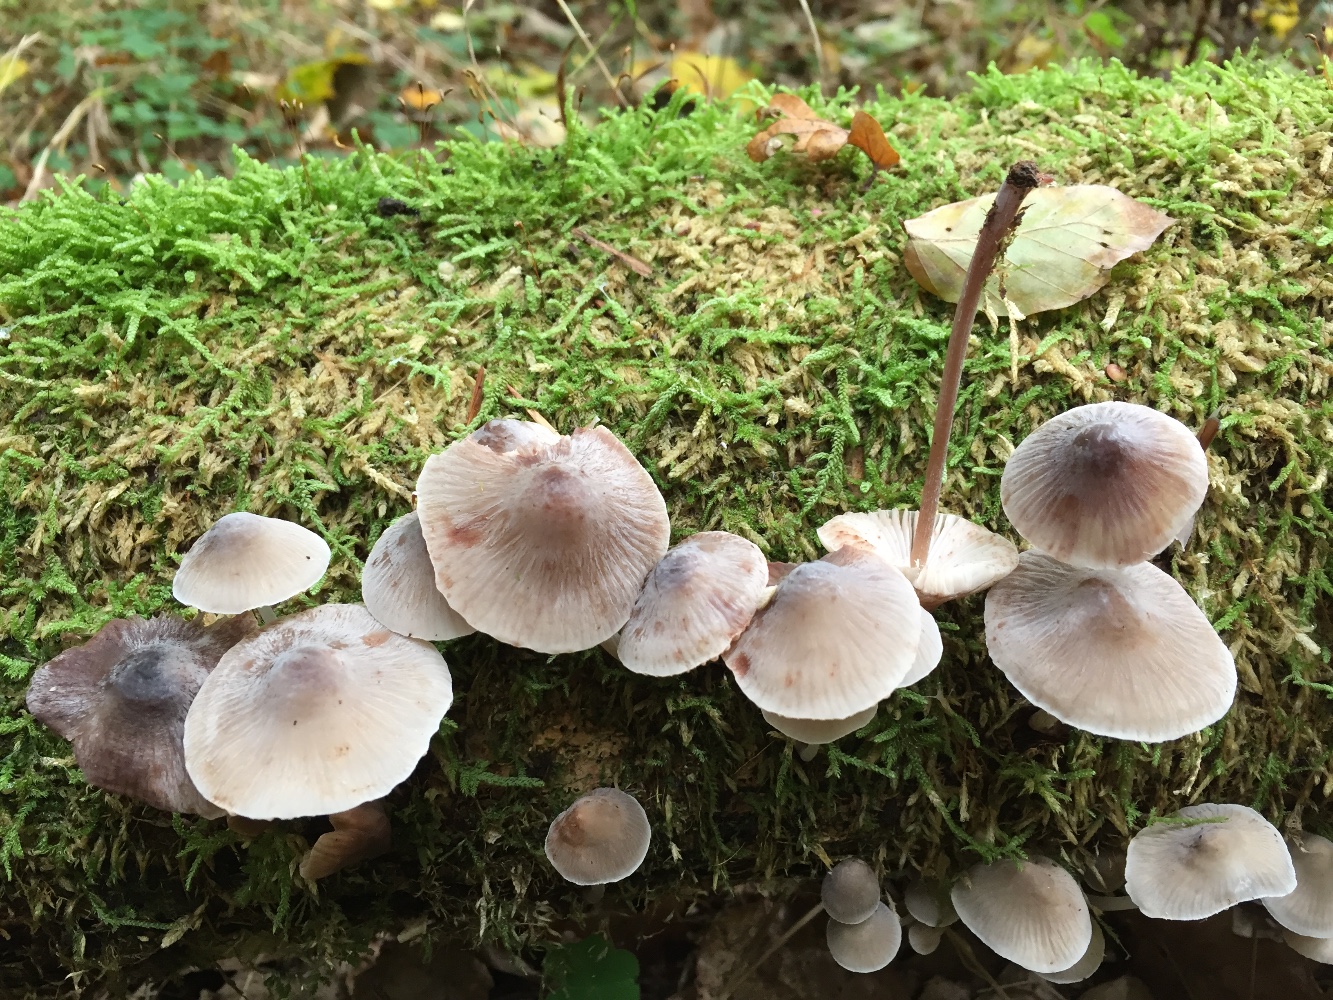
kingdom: Fungi
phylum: Basidiomycota
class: Agaricomycetes
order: Agaricales
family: Mycenaceae
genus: Mycena
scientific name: Mycena haematopus
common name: blødende huesvamp
